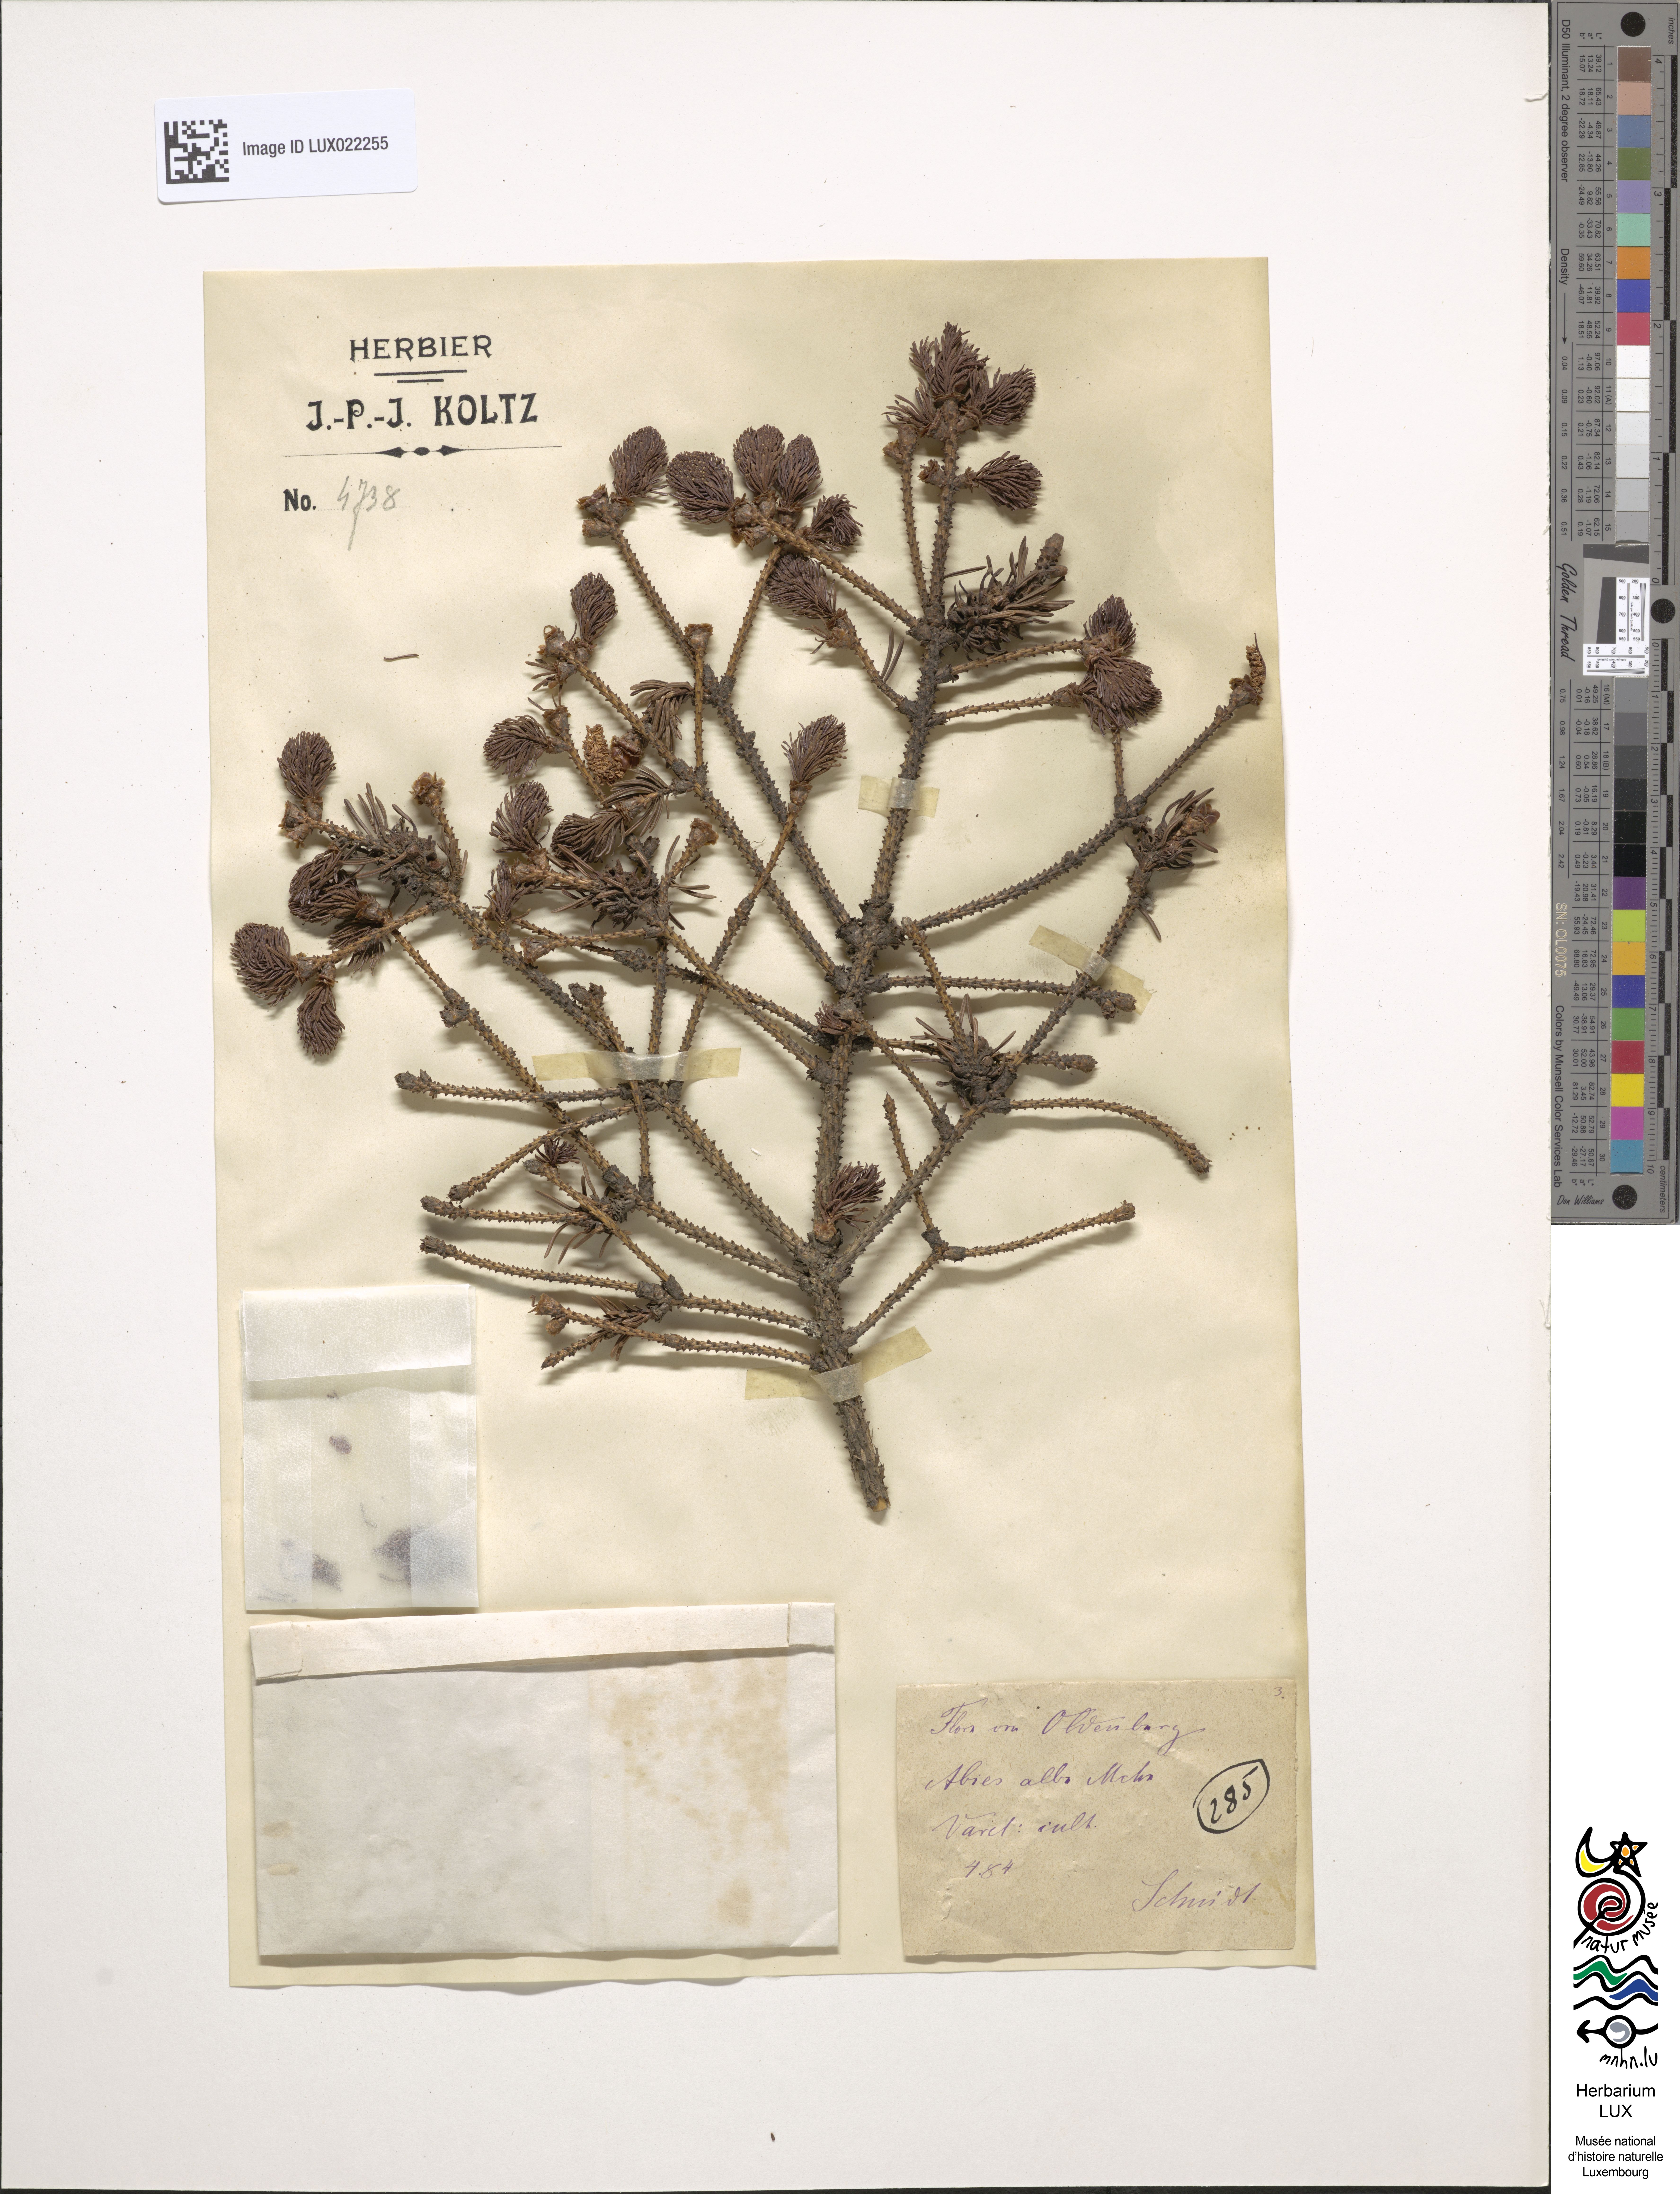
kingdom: Plantae
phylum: Tracheophyta
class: Pinopsida
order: Pinales
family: Pinaceae
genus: Abies
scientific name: Abies alba
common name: Silver fir
